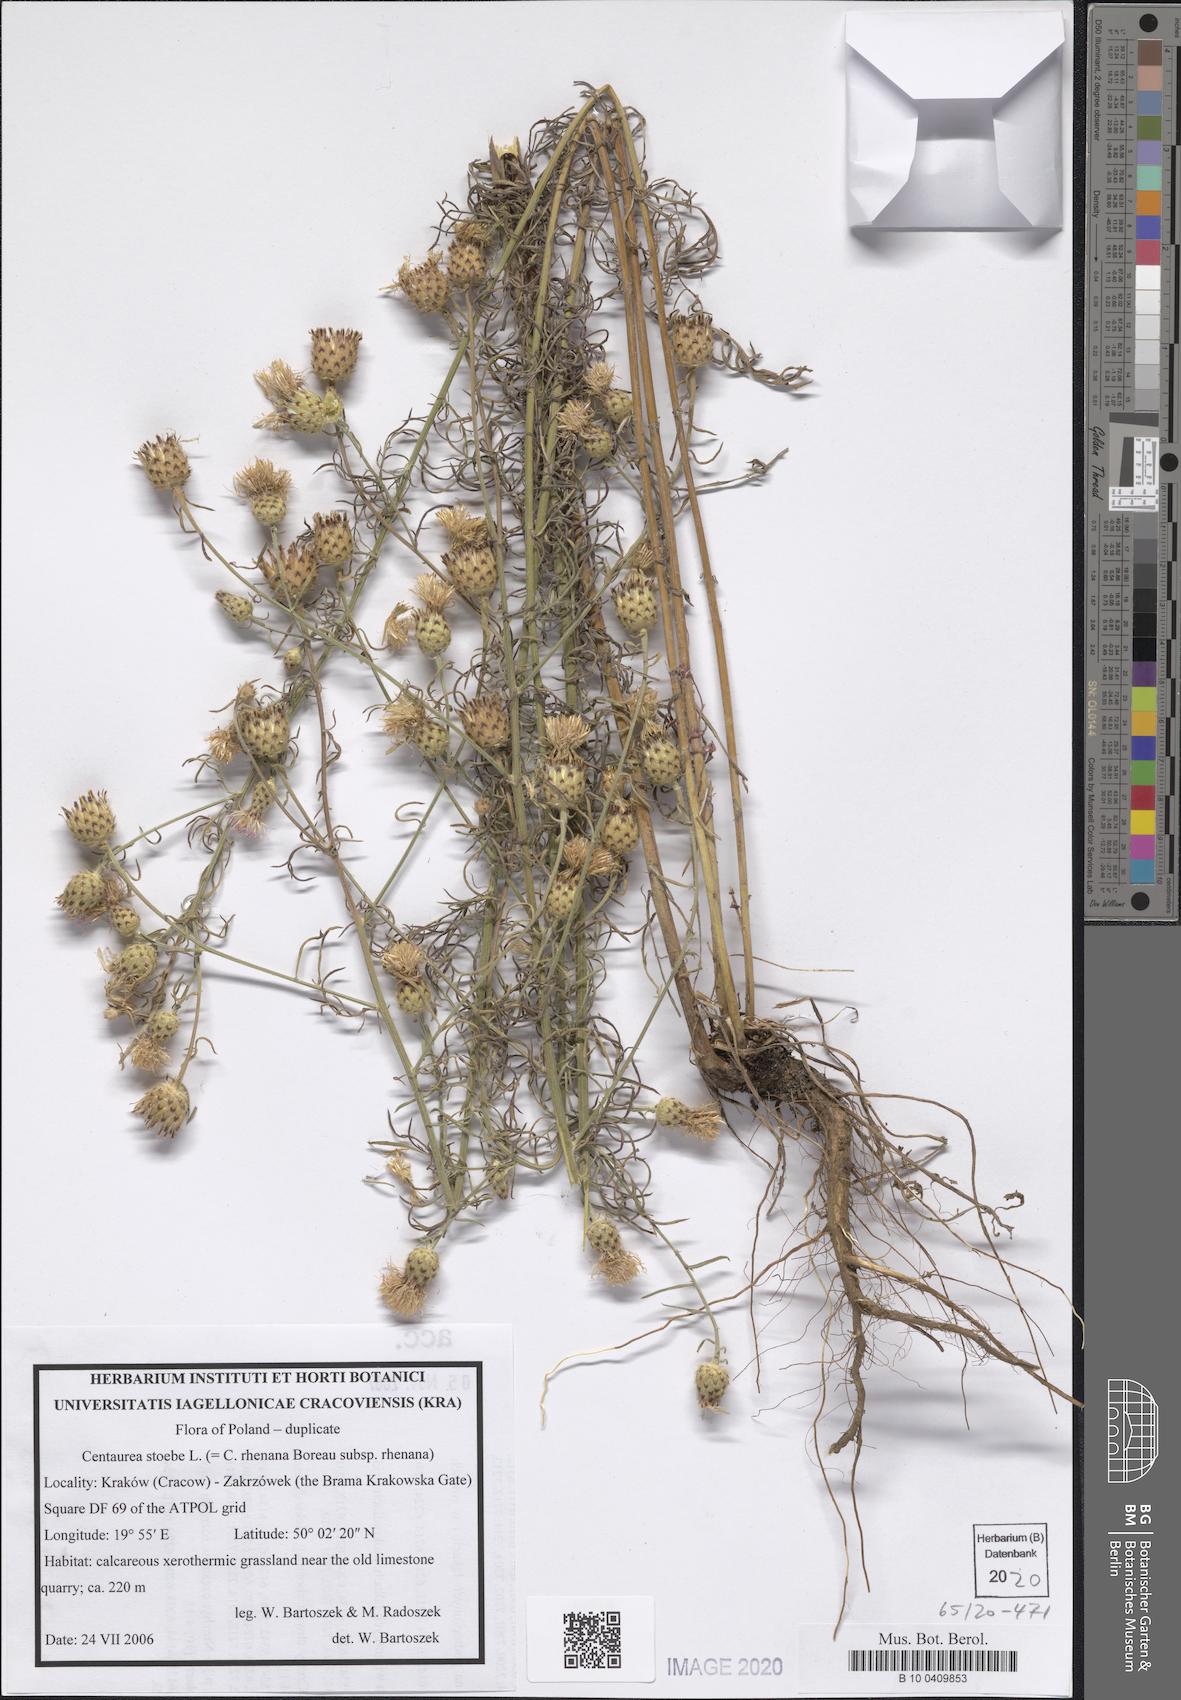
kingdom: Plantae
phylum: Tracheophyta
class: Magnoliopsida
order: Asterales
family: Asteraceae
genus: Centaurea
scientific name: Centaurea stoebe
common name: Spotted knapweed
